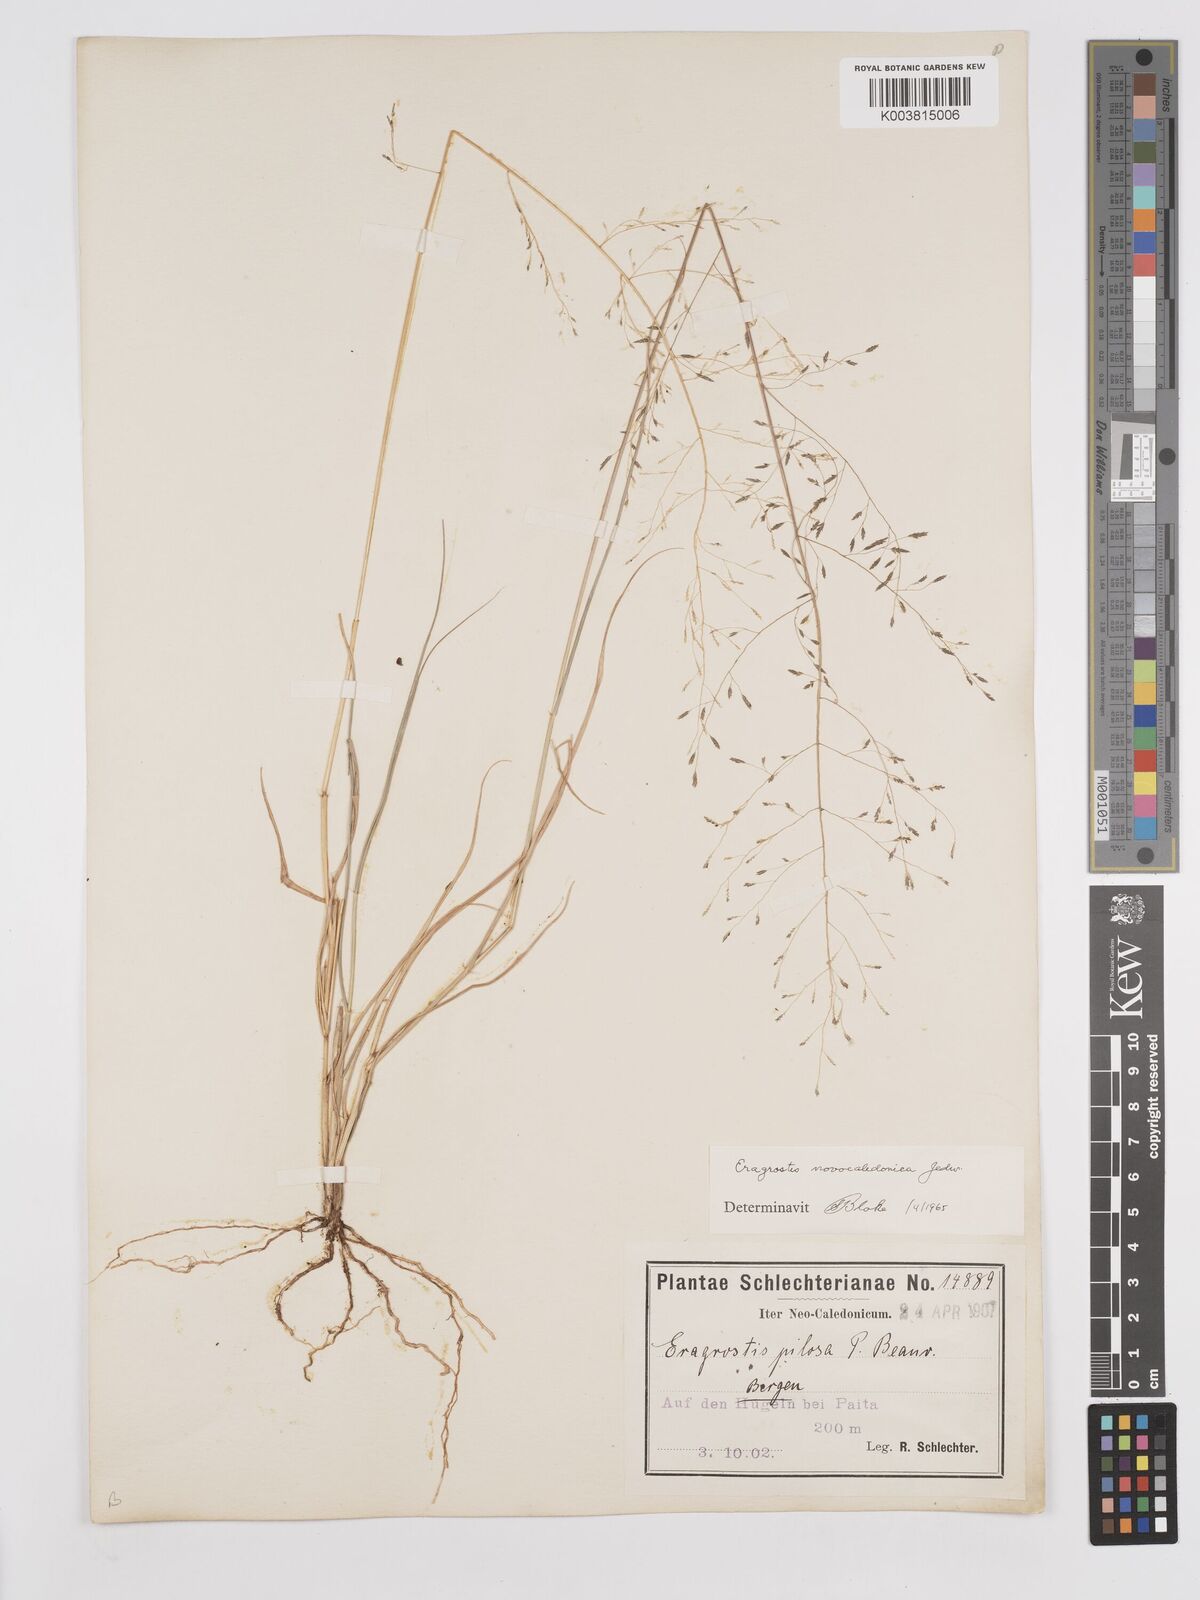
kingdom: Plantae
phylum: Tracheophyta
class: Liliopsida
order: Poales
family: Poaceae
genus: Eragrostis
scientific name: Eragrostis parviflora
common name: Weeping love-grass
